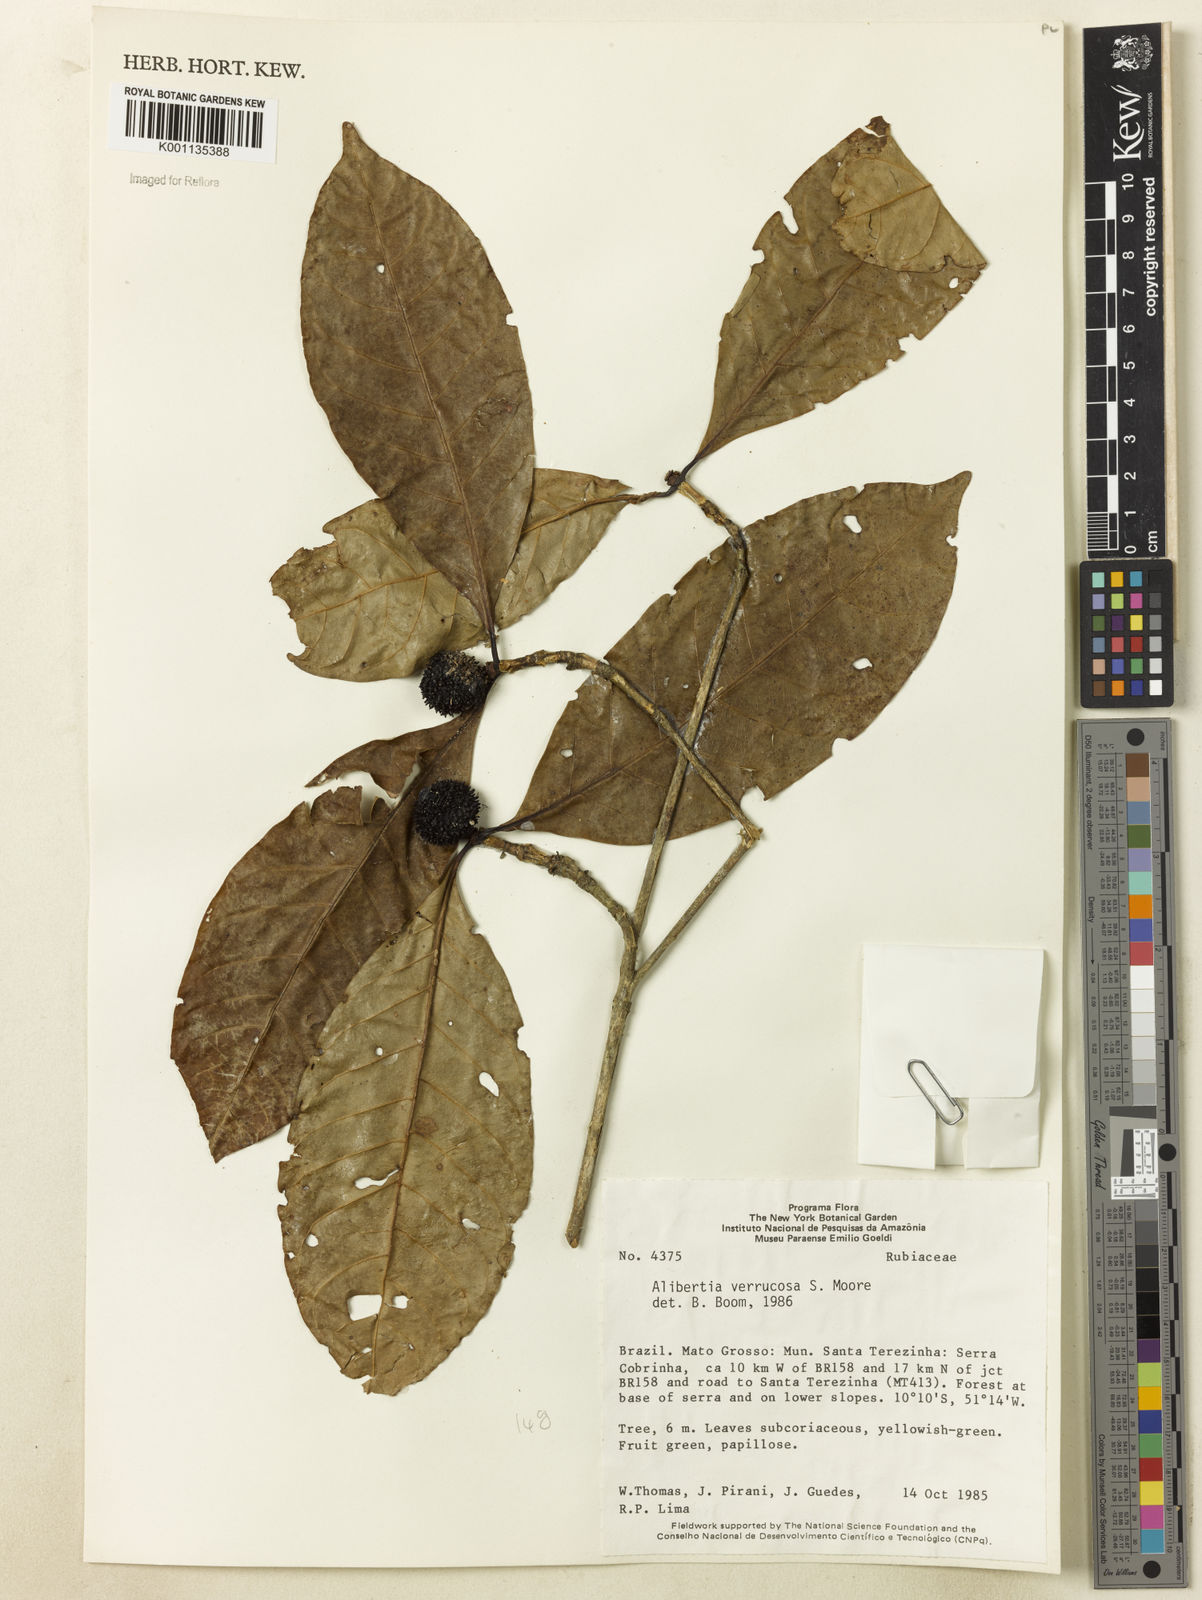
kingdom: Plantae
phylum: Tracheophyta
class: Magnoliopsida
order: Gentianales
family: Rubiaceae
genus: Cordiera
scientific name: Cordiera macrophylla
